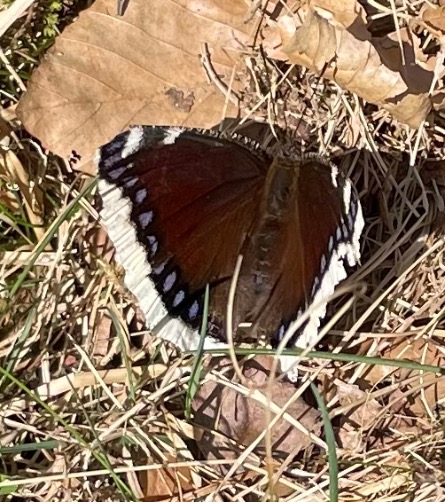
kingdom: Animalia
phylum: Arthropoda
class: Insecta
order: Lepidoptera
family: Nymphalidae
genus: Nymphalis
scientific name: Nymphalis antiopa
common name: Sørgekåbe
